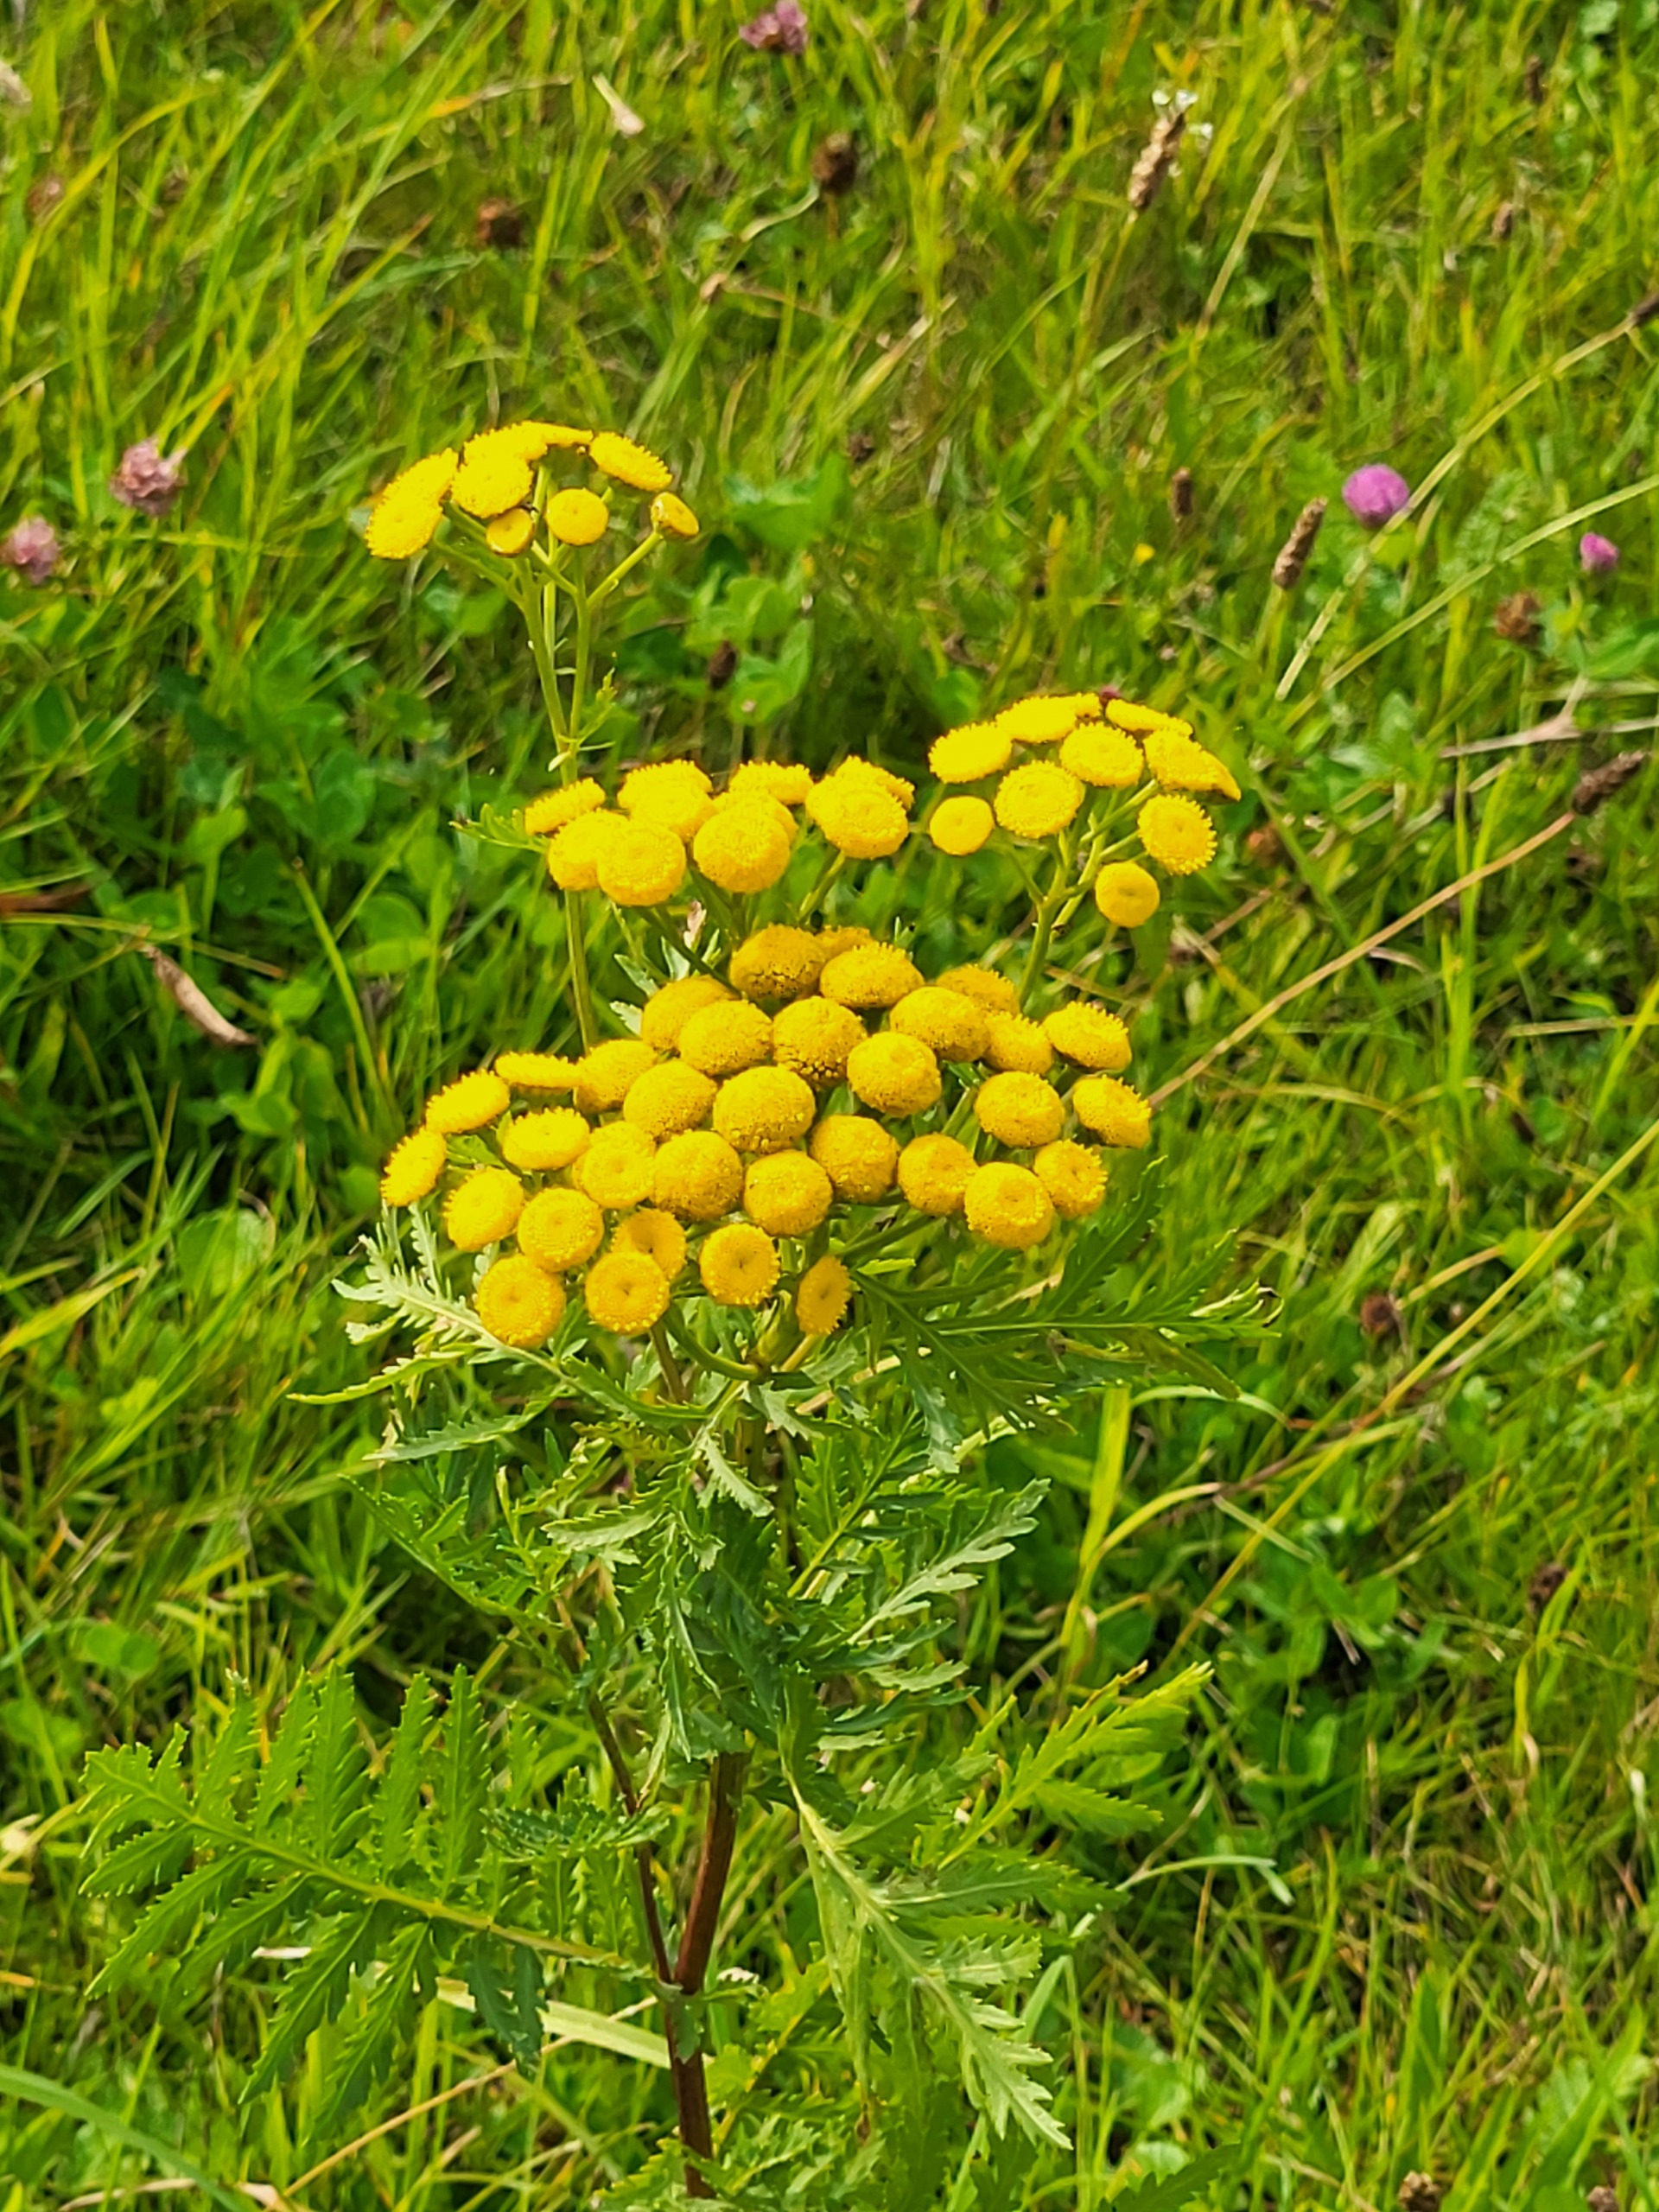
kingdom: Plantae
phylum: Tracheophyta
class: Magnoliopsida
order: Asterales
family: Asteraceae
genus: Tanacetum
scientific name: Tanacetum vulgare
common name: Rejnfan
